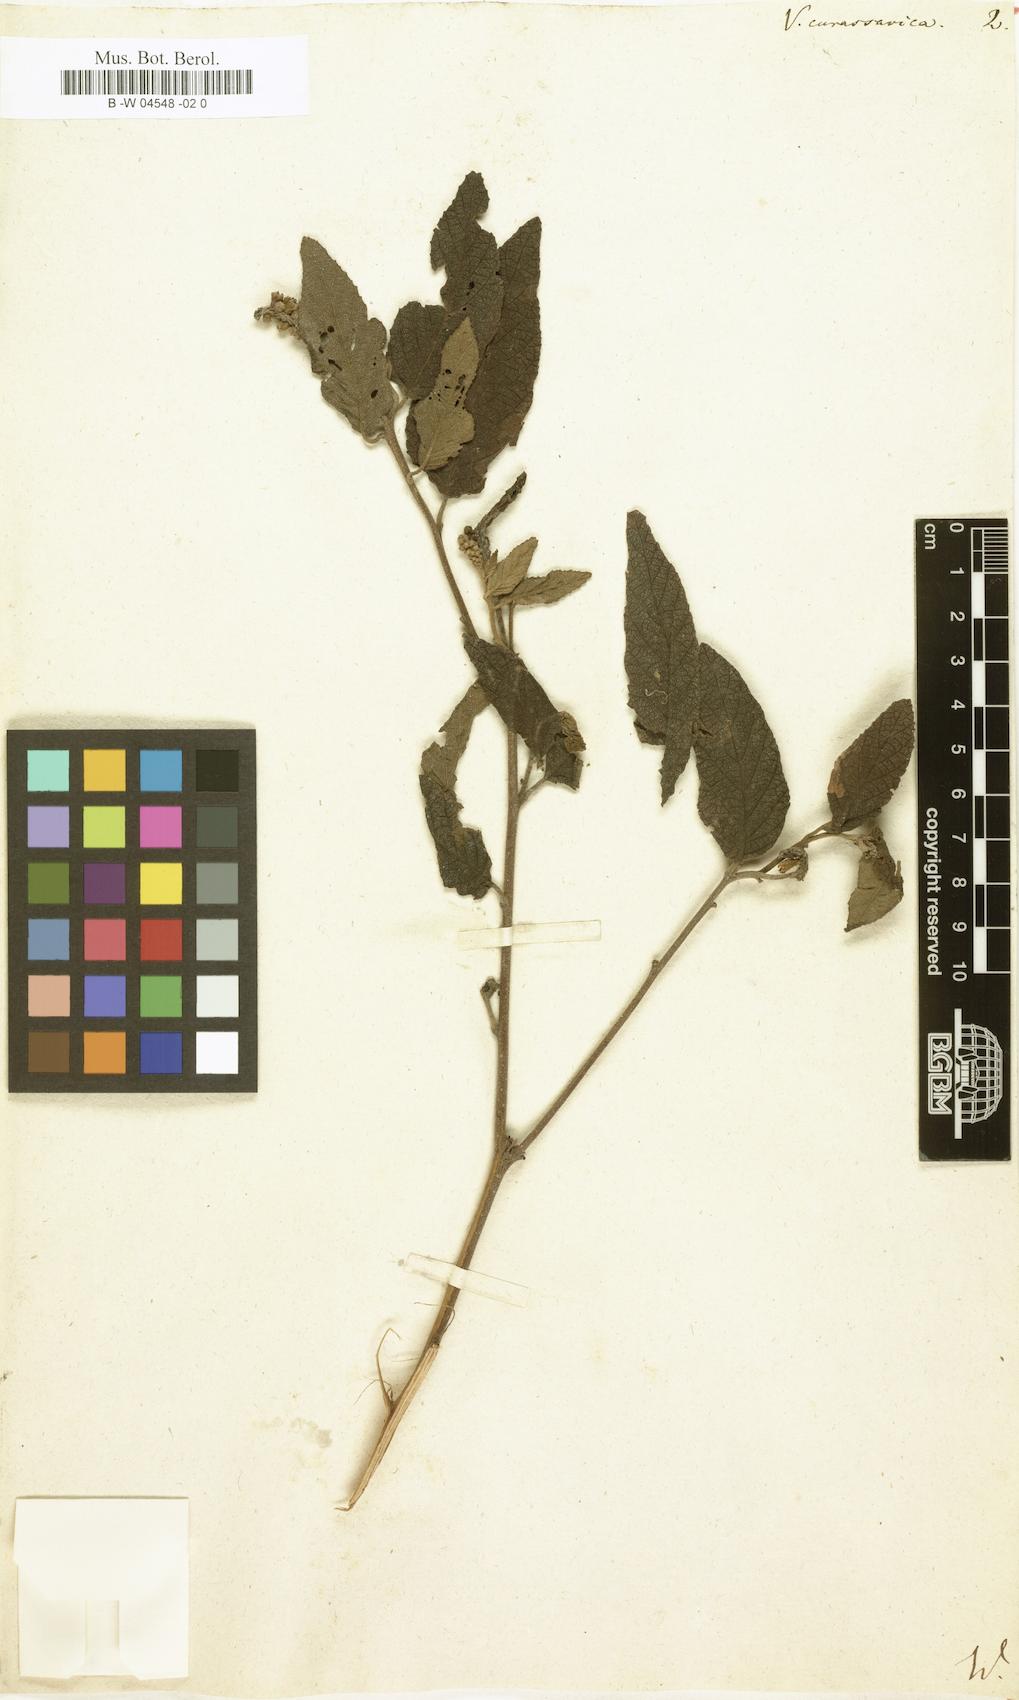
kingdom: Plantae
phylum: Tracheophyta
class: Magnoliopsida
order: Boraginales
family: Cordiaceae
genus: Varronia
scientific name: Varronia curassavica
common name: Black sage
